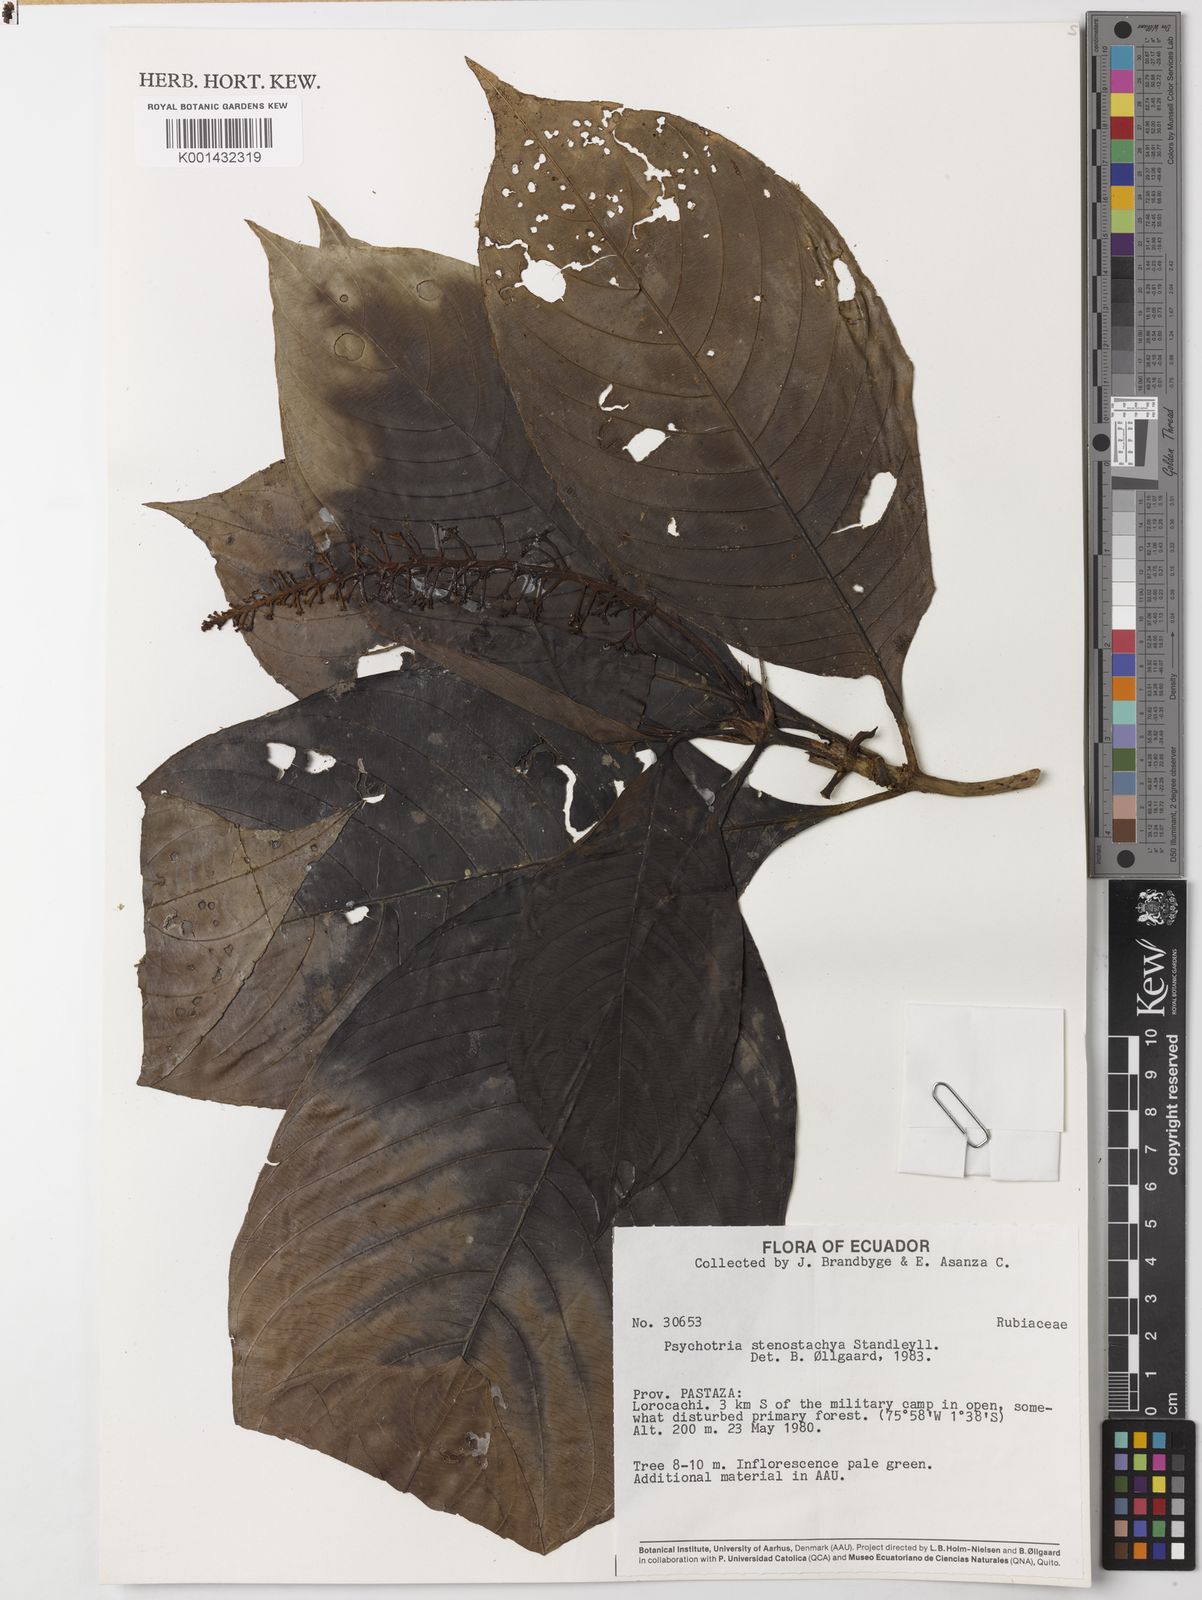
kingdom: Plantae
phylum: Tracheophyta
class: Magnoliopsida
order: Gentianales
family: Rubiaceae
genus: Palicourea
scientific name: Palicourea stenostachya
